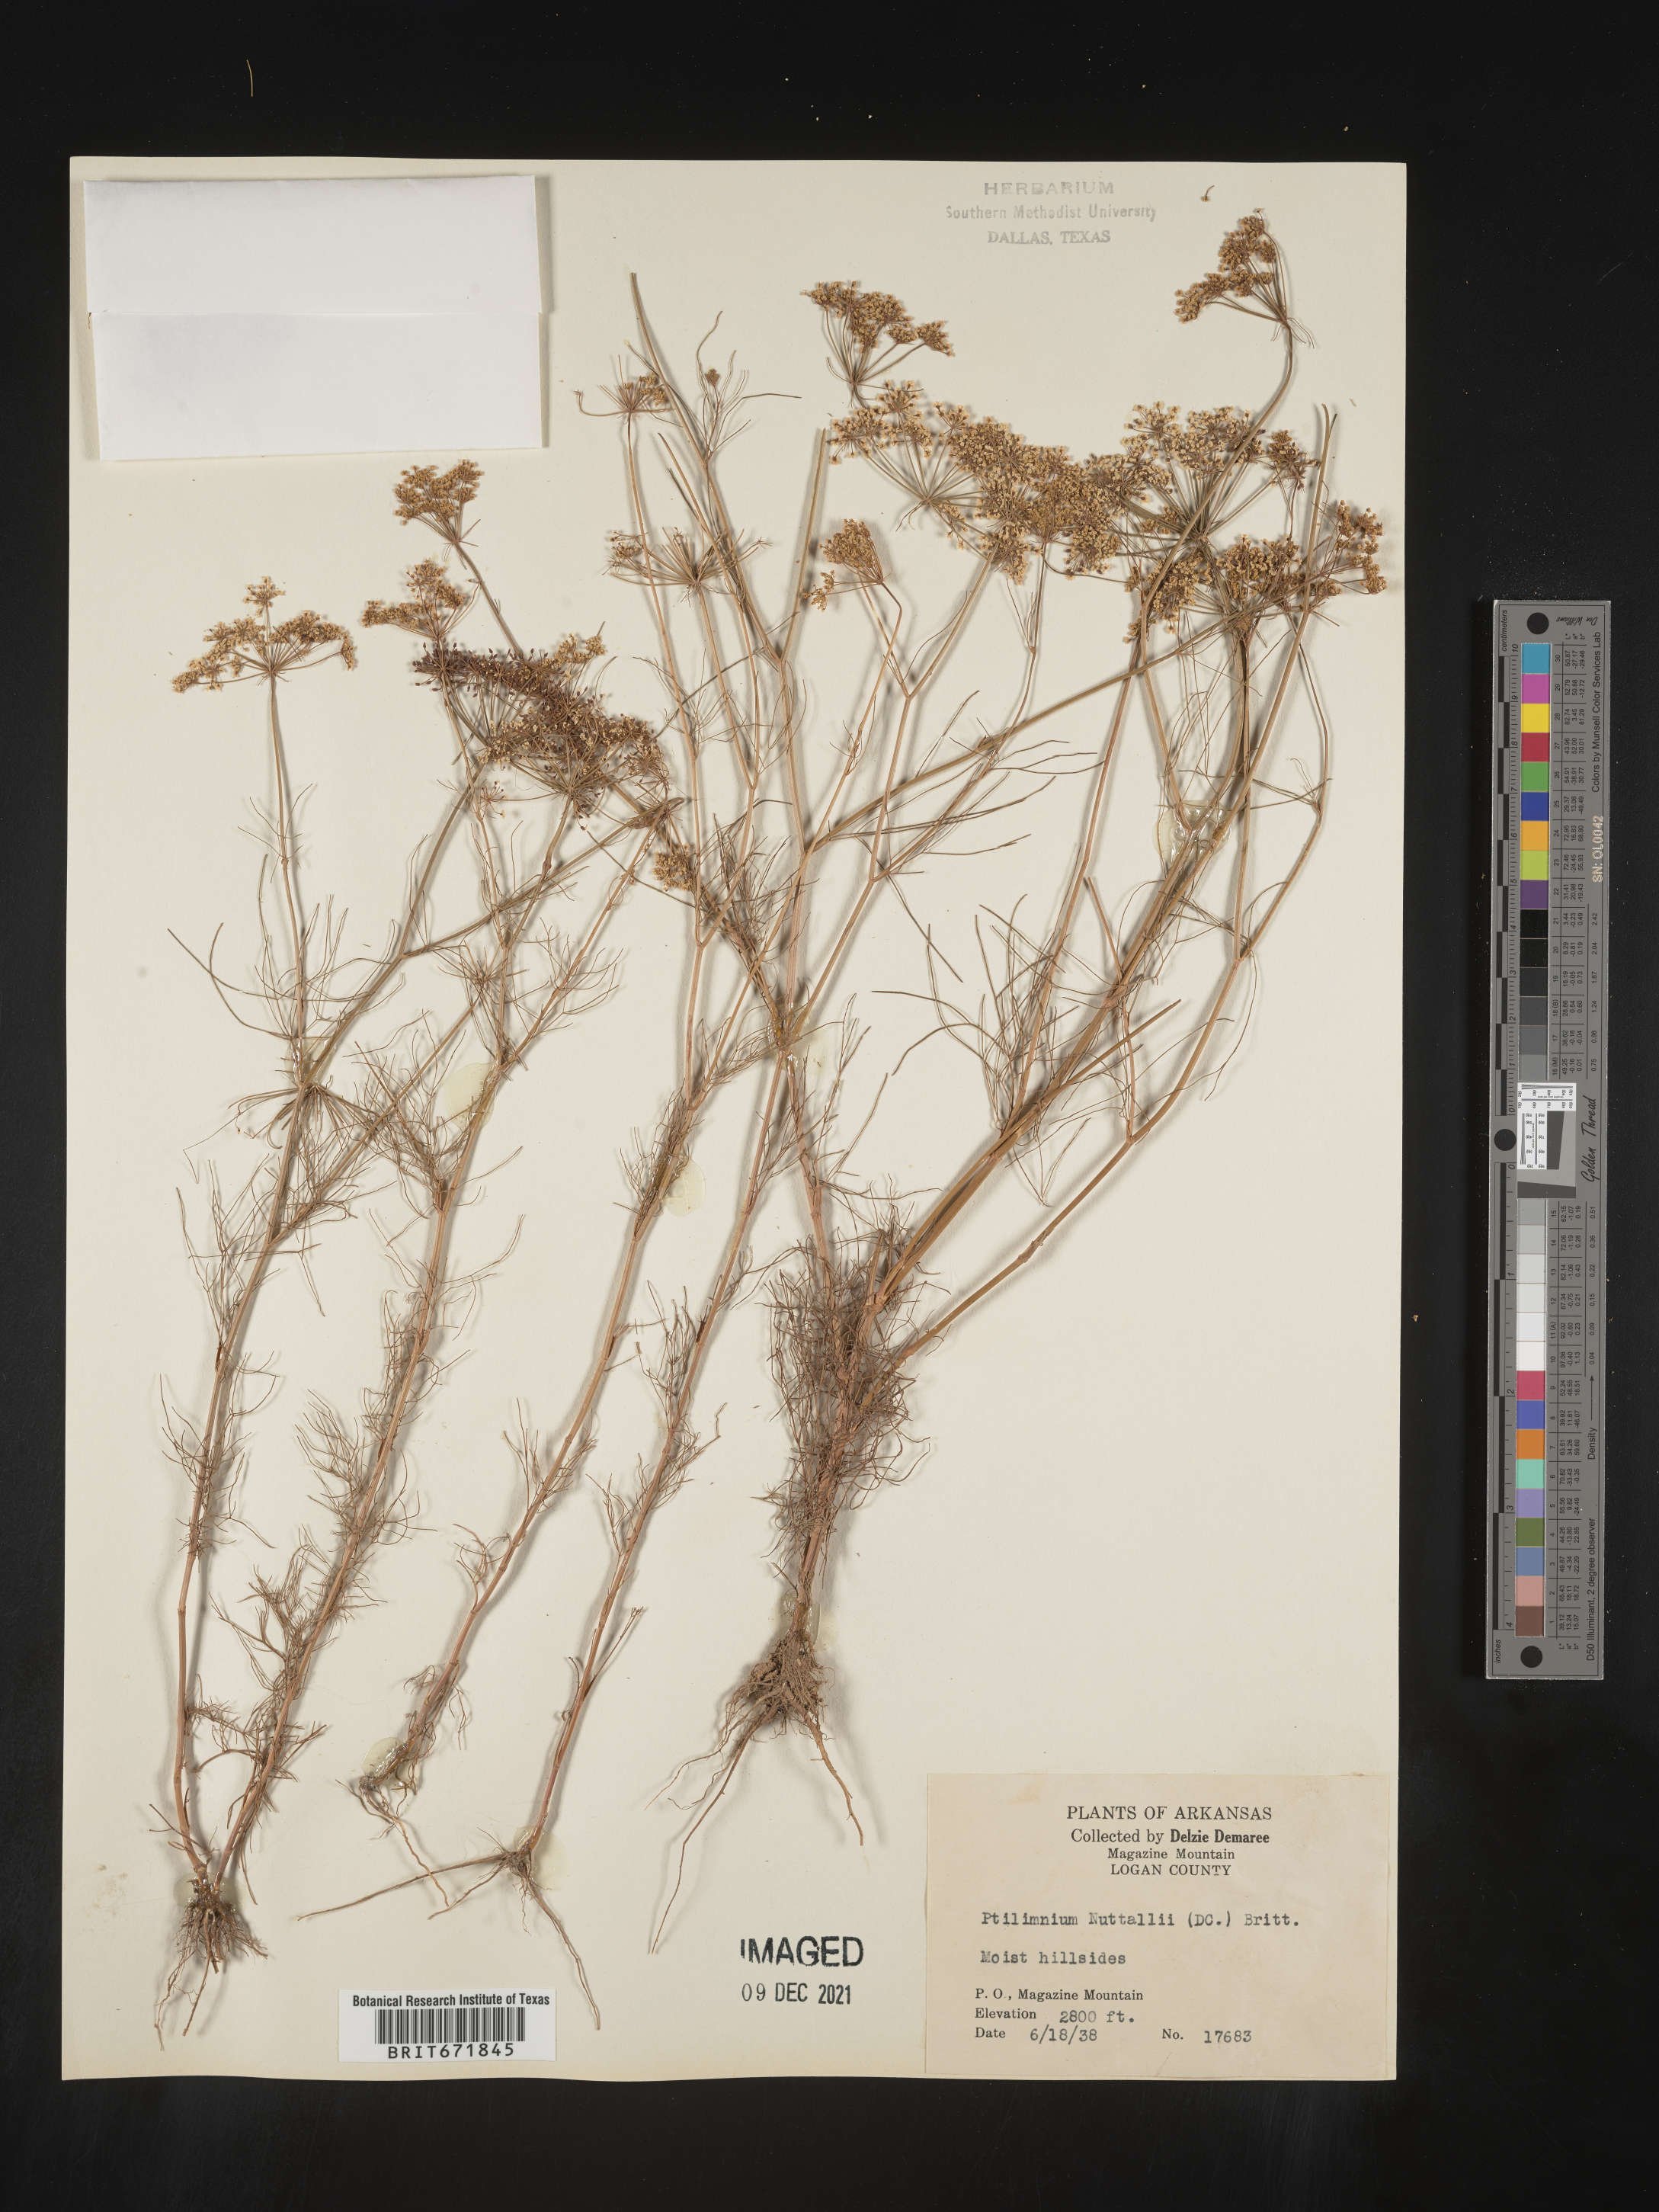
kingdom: Plantae
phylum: Tracheophyta
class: Magnoliopsida
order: Apiales
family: Apiaceae
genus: Ptilimnium
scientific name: Ptilimnium nuttallii
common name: Ozark bishop's-weed
